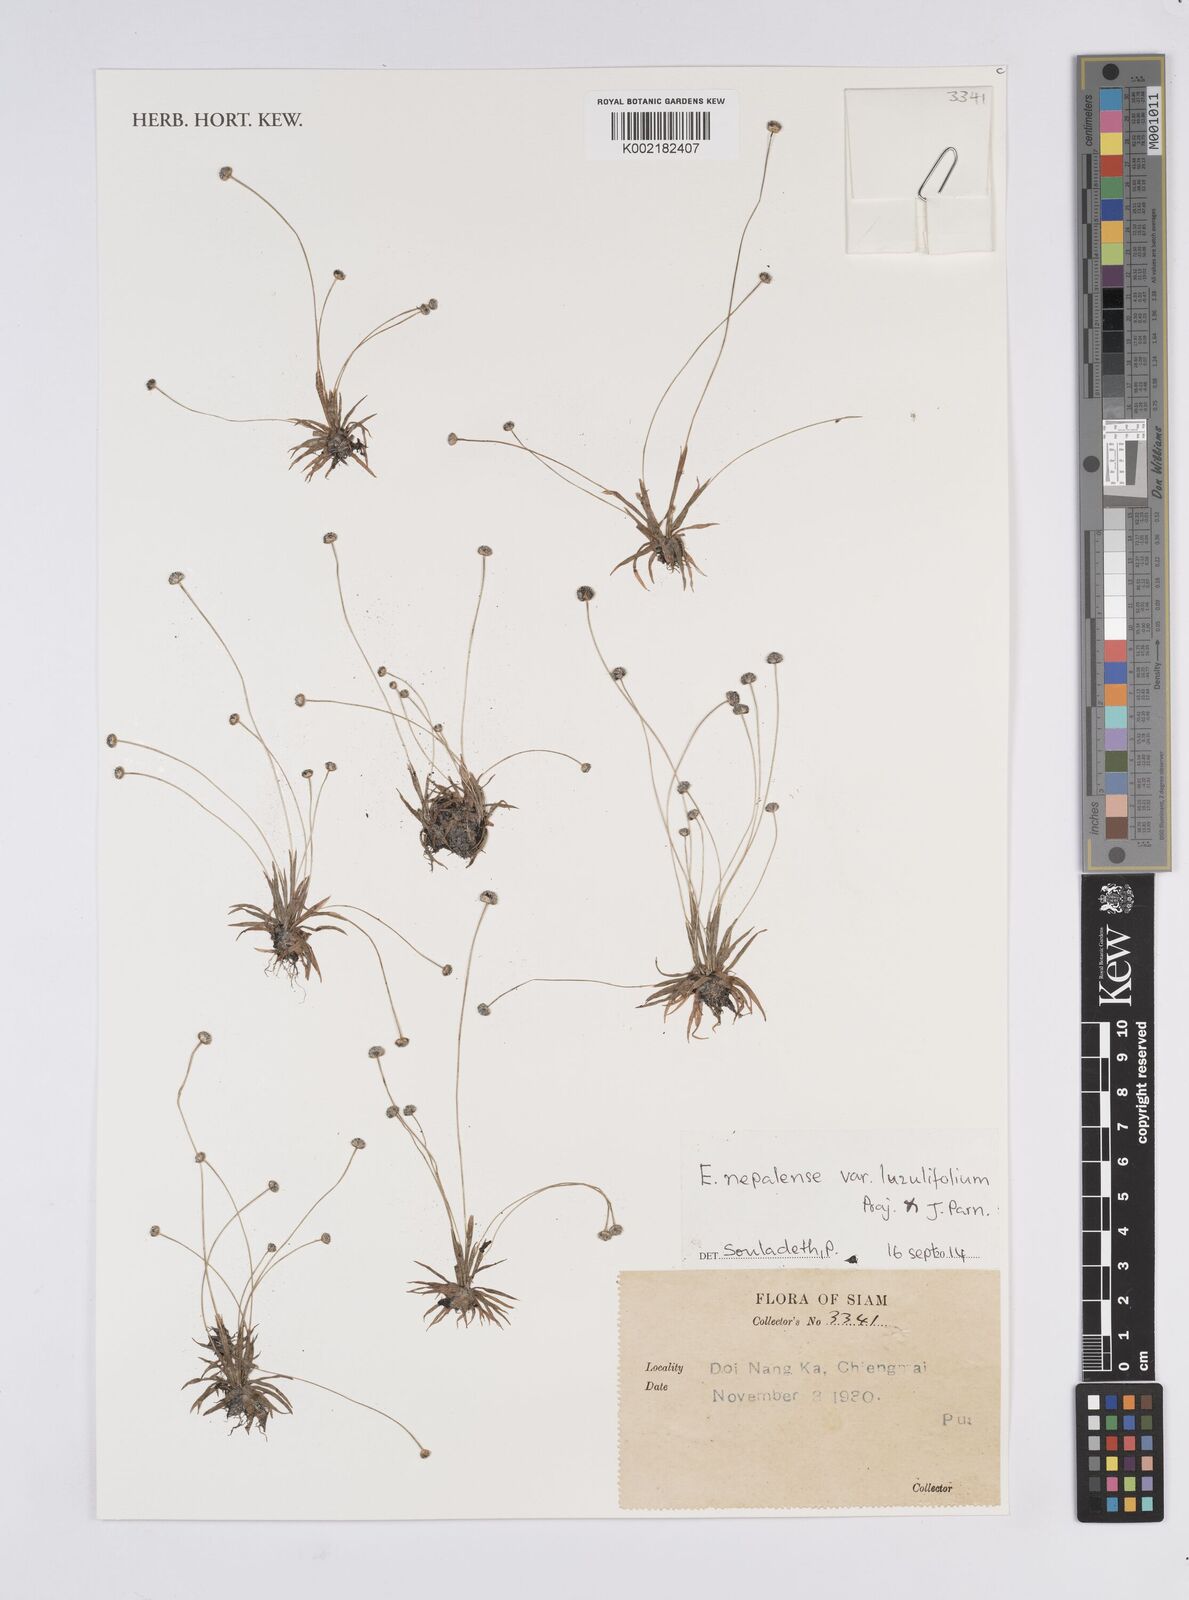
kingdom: Plantae
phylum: Tracheophyta
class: Liliopsida
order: Poales
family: Eriocaulaceae
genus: Eriocaulon
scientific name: Eriocaulon nepalense
